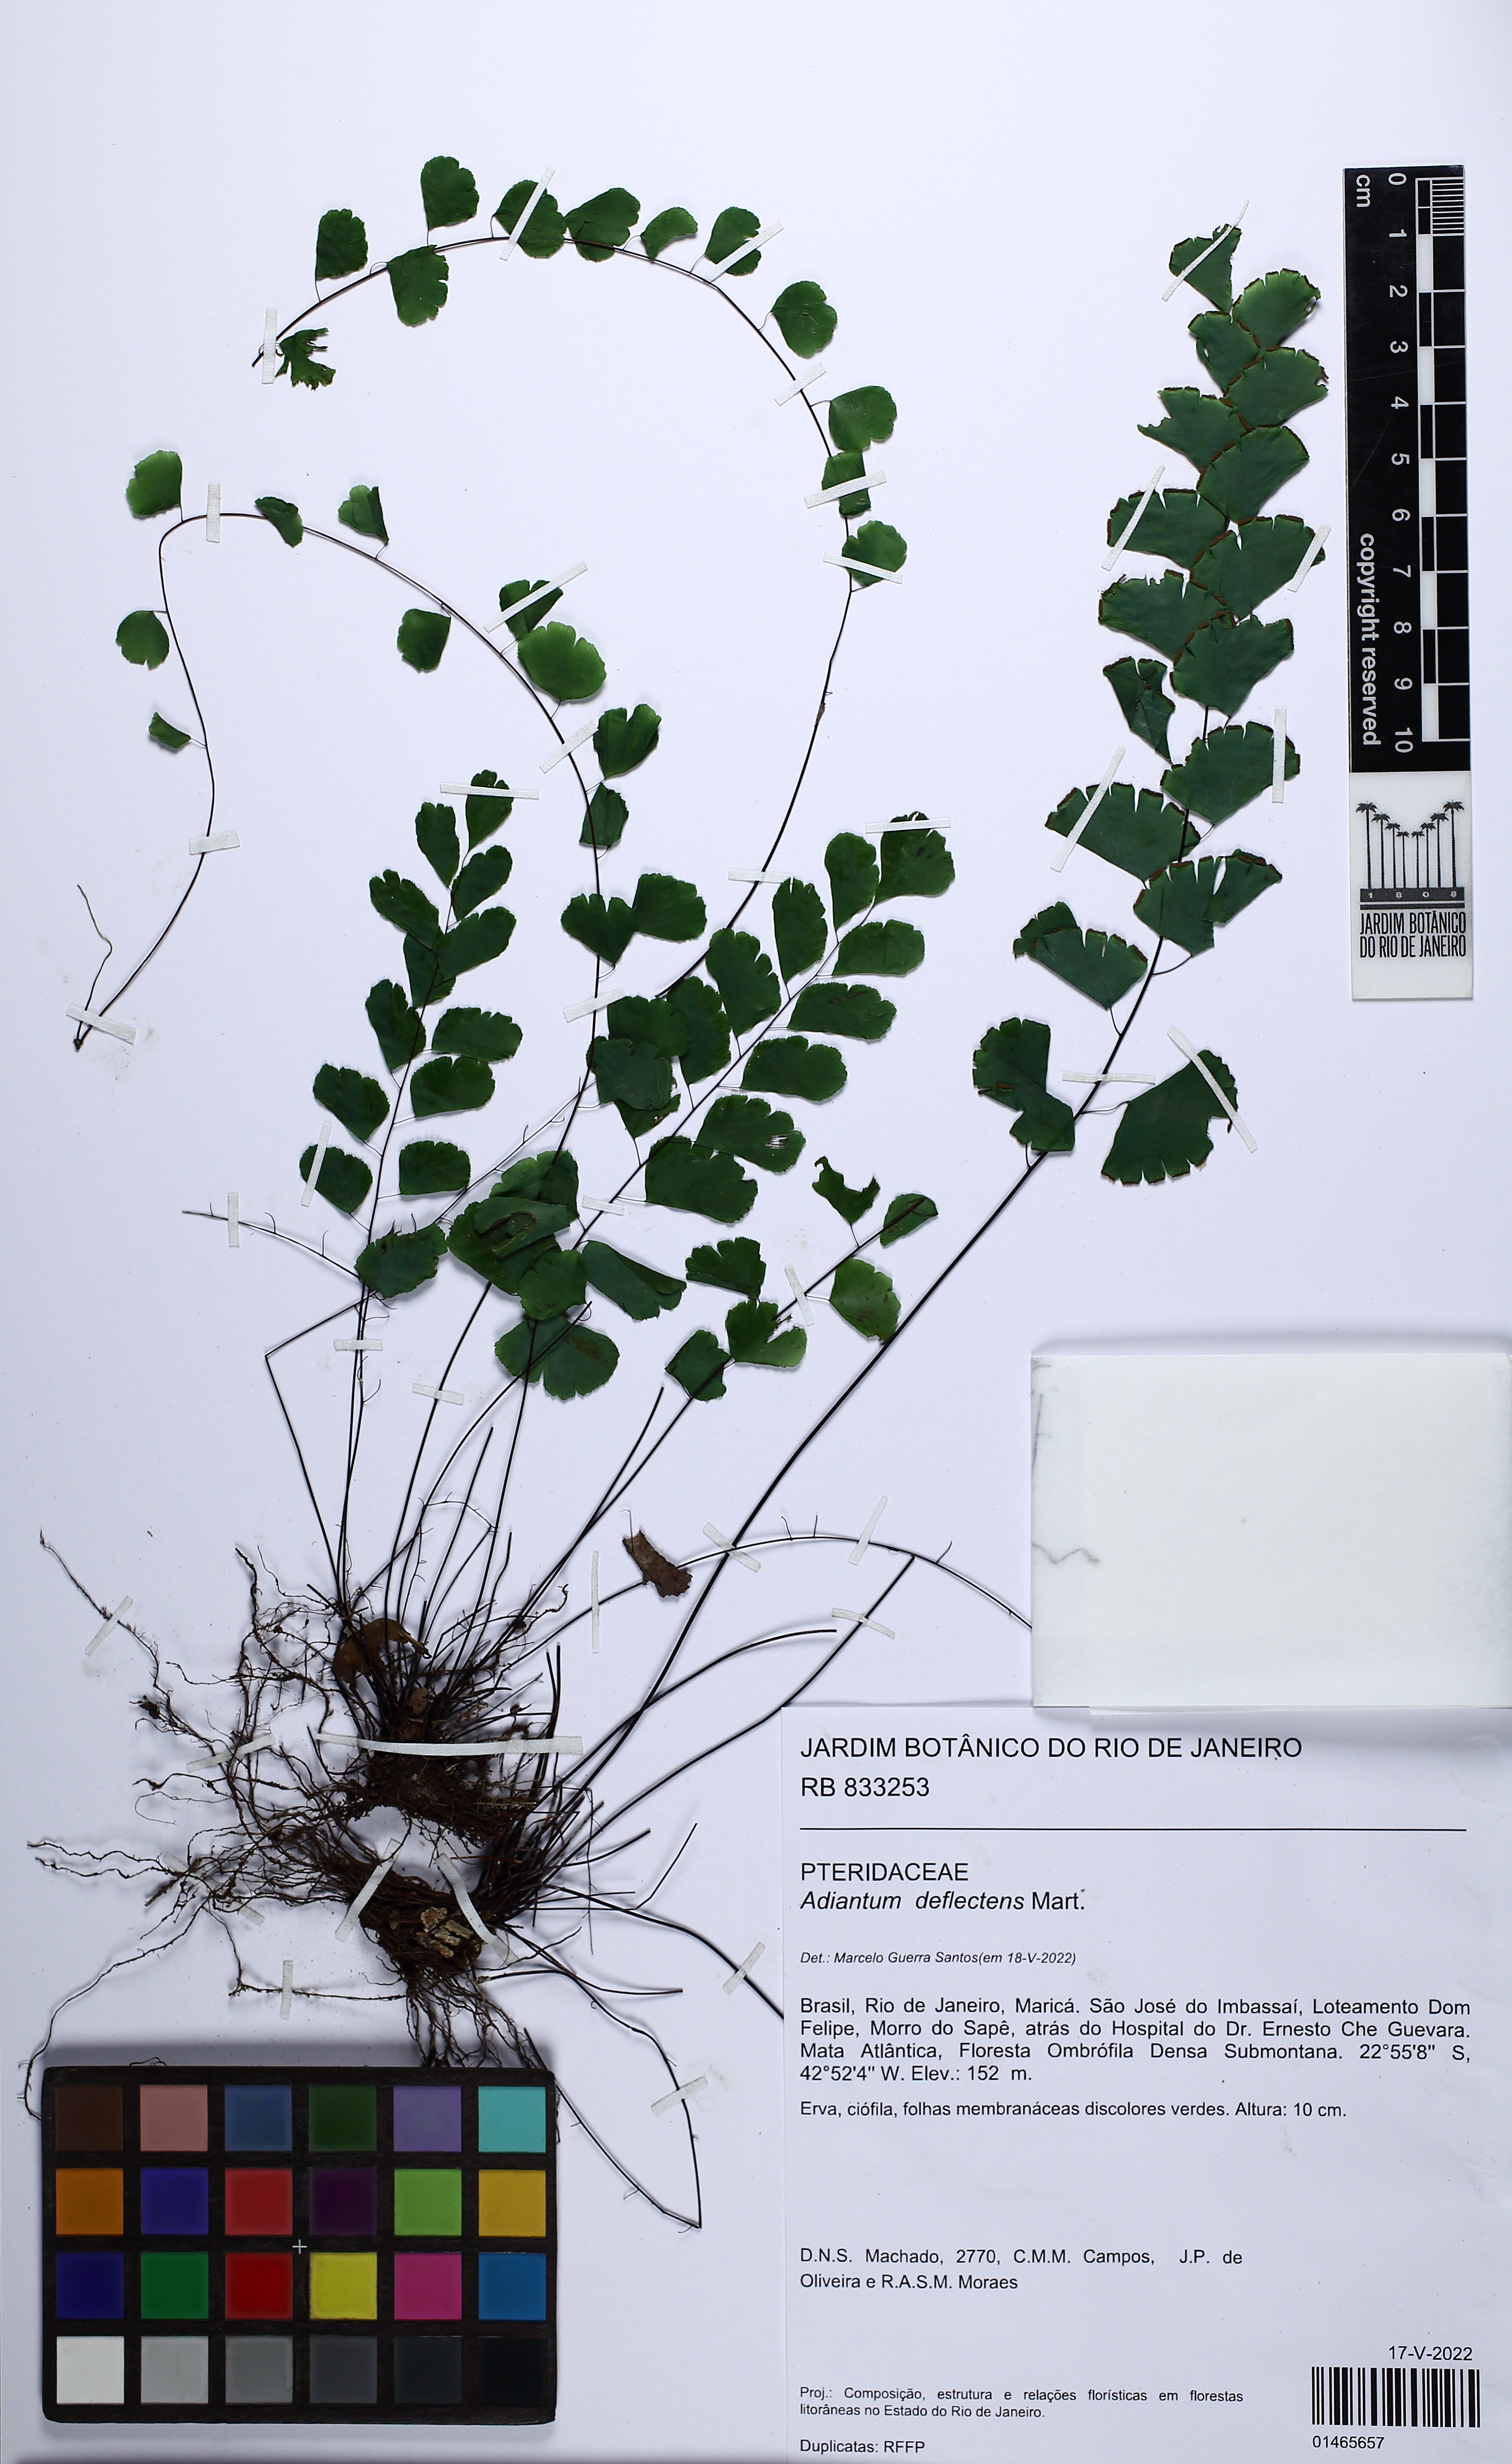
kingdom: Plantae
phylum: Tracheophyta
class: Polypodiopsida
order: Polypodiales
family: Pteridaceae
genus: Adiantum
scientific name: Adiantum deflectens
